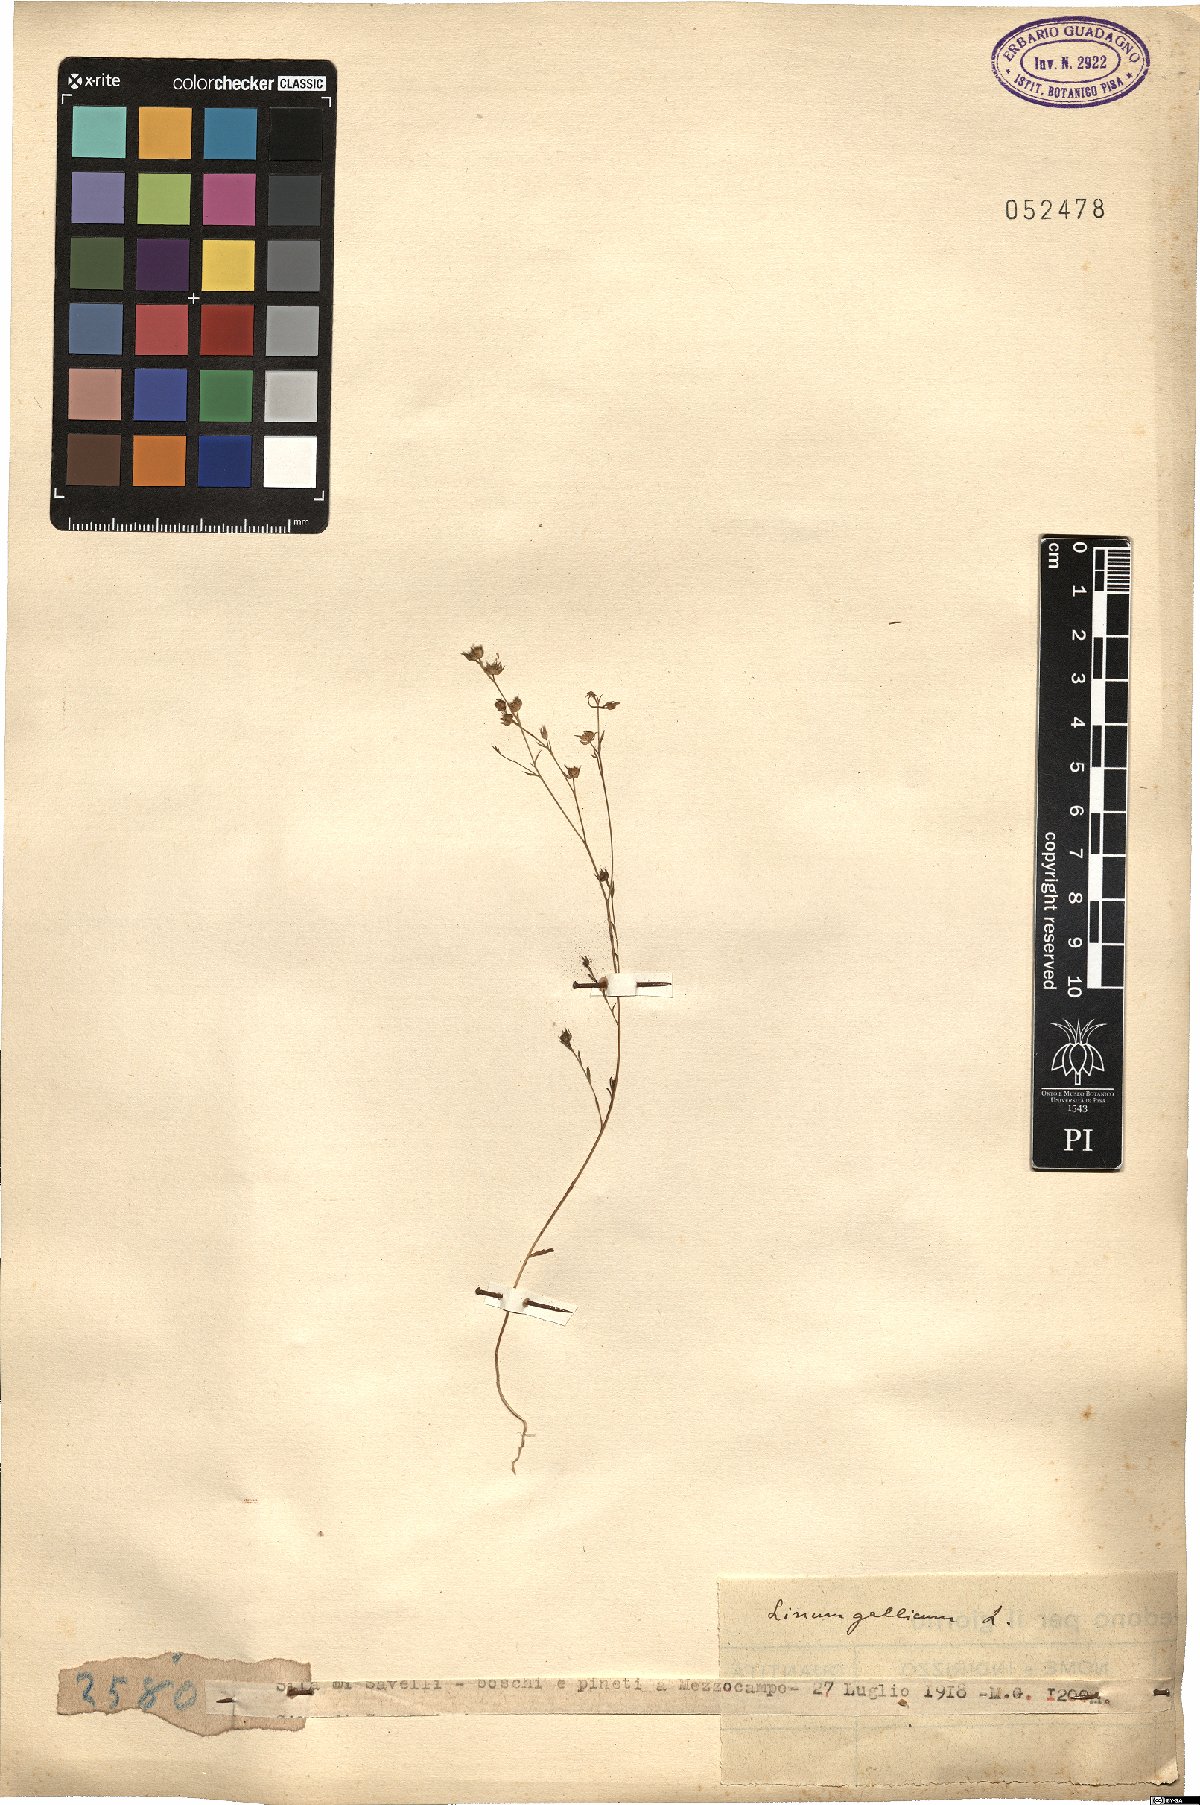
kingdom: Plantae
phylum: Tracheophyta
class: Magnoliopsida
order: Malpighiales
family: Linaceae
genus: Linum
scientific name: Linum trigynum
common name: French flax
